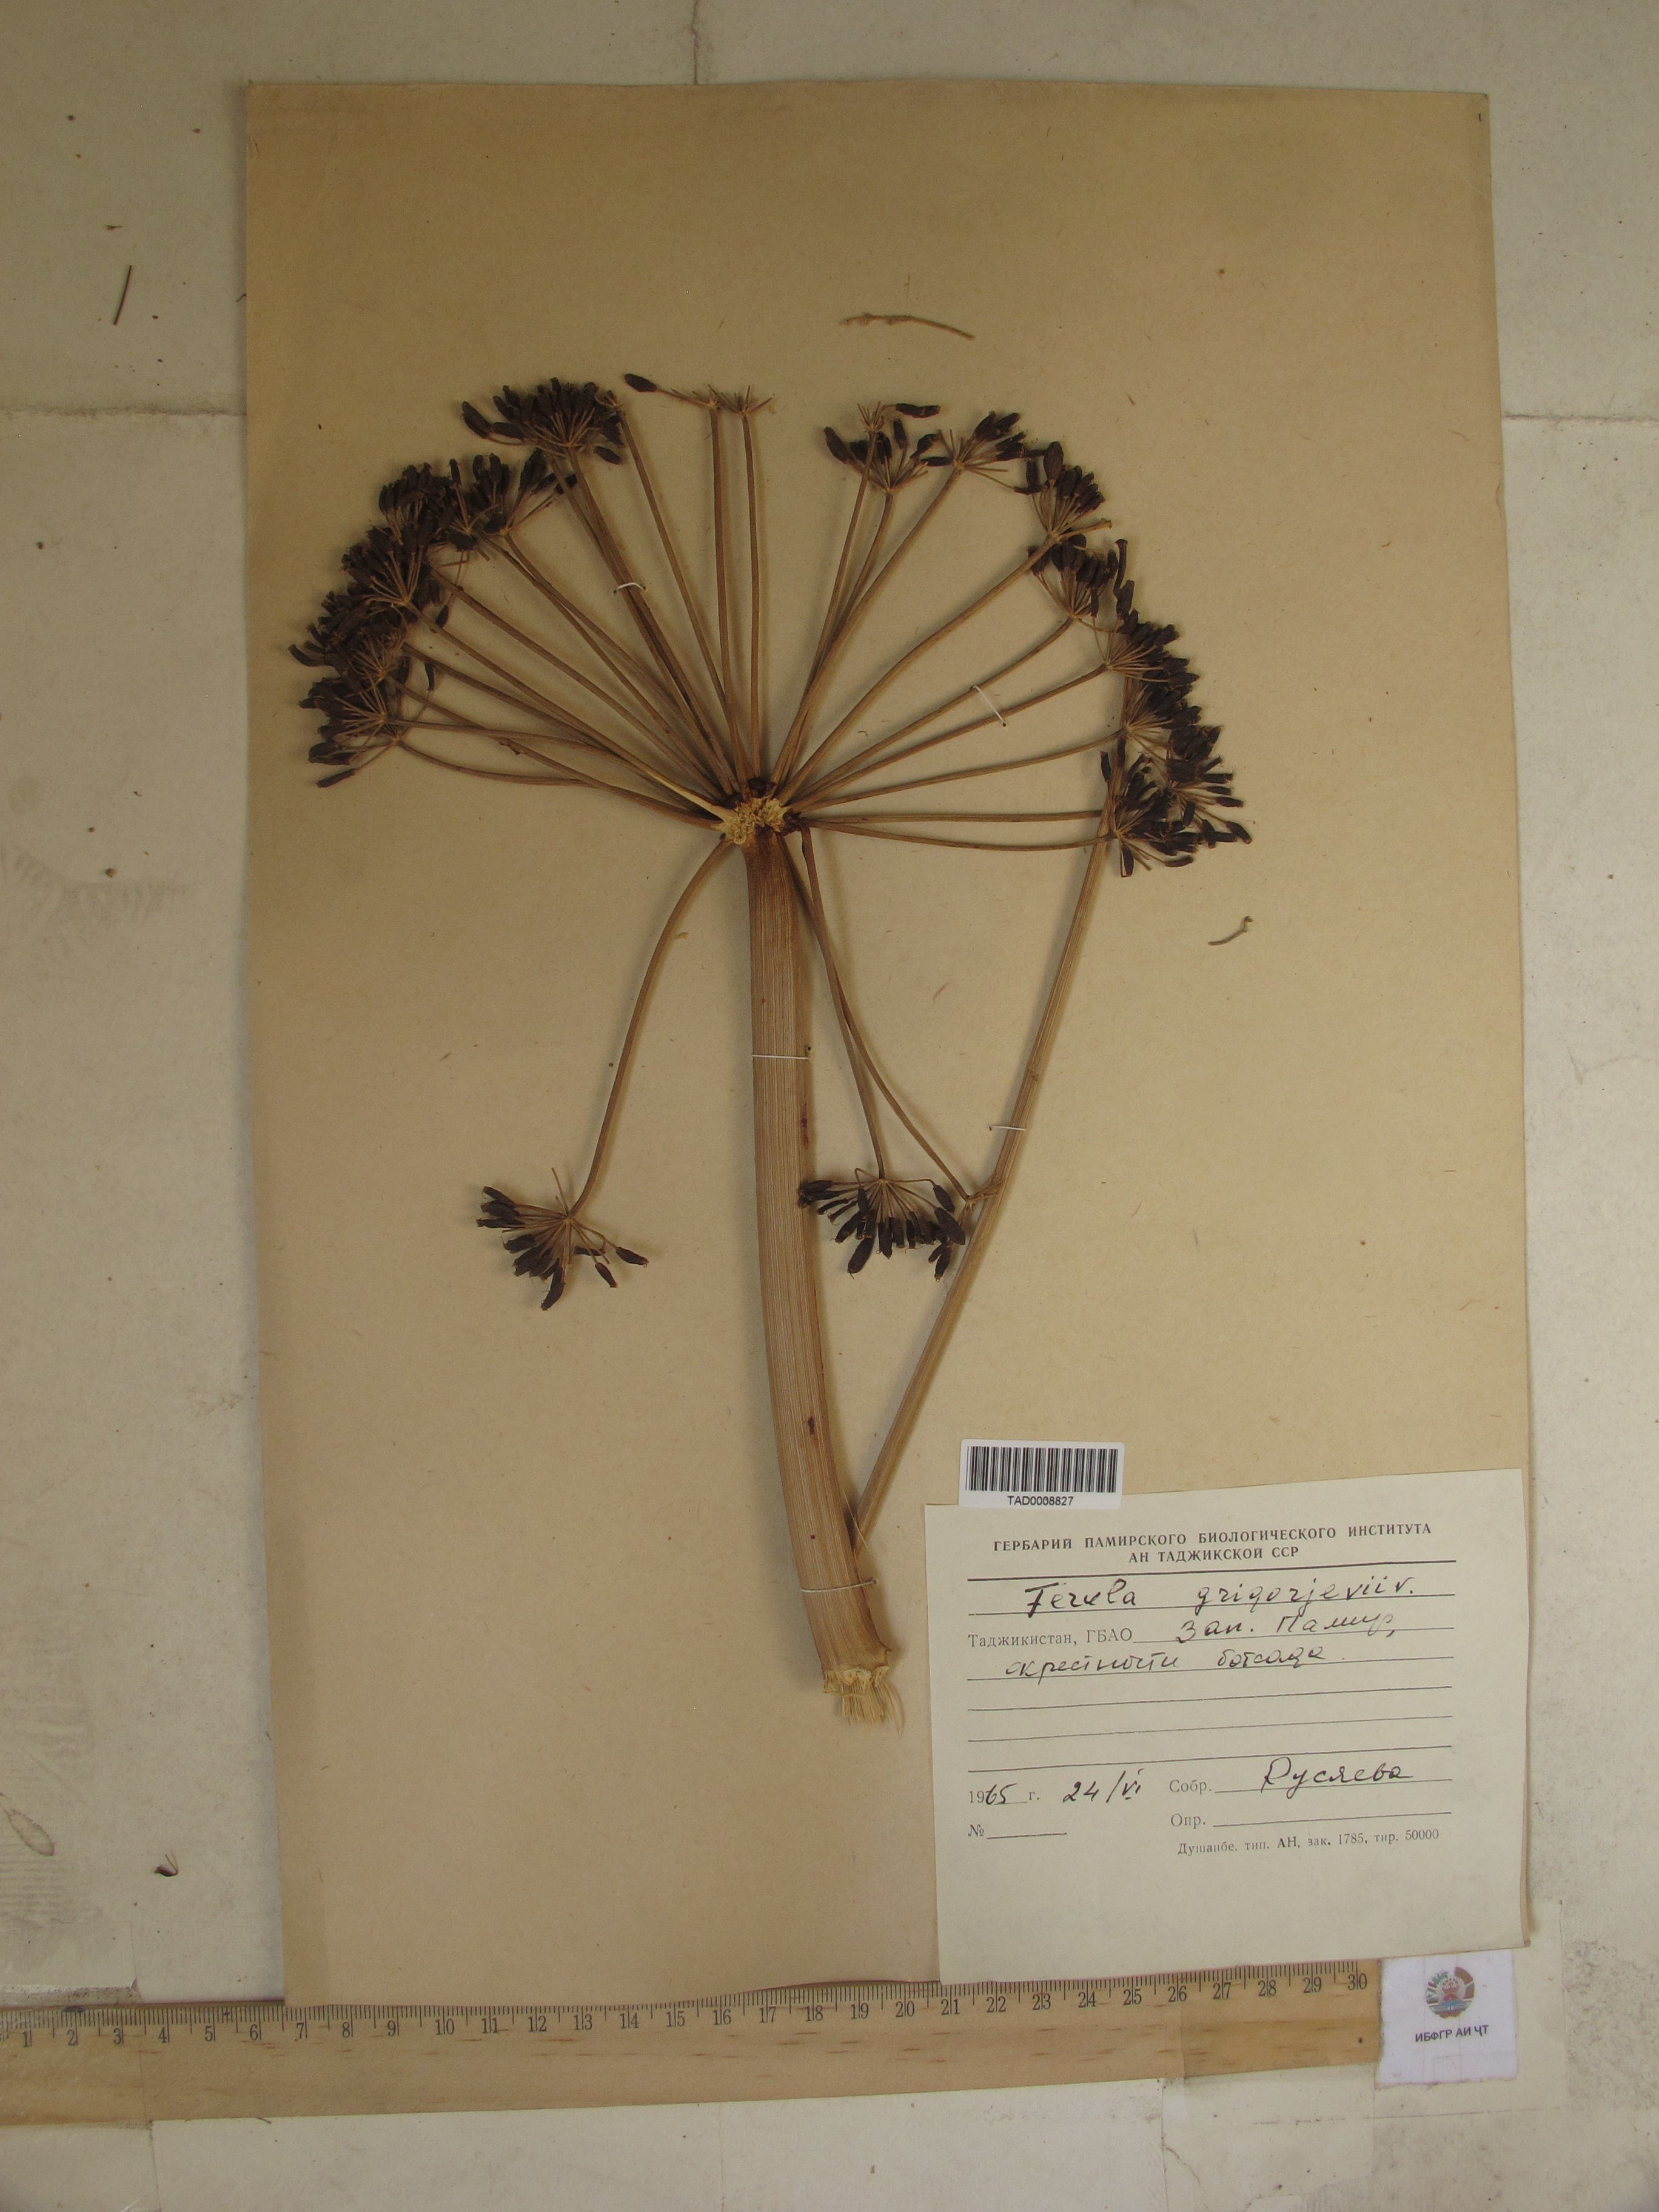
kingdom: Plantae
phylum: Tracheophyta
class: Magnoliopsida
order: Apiales
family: Apiaceae
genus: Ferula
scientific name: Ferula grigoriewii
